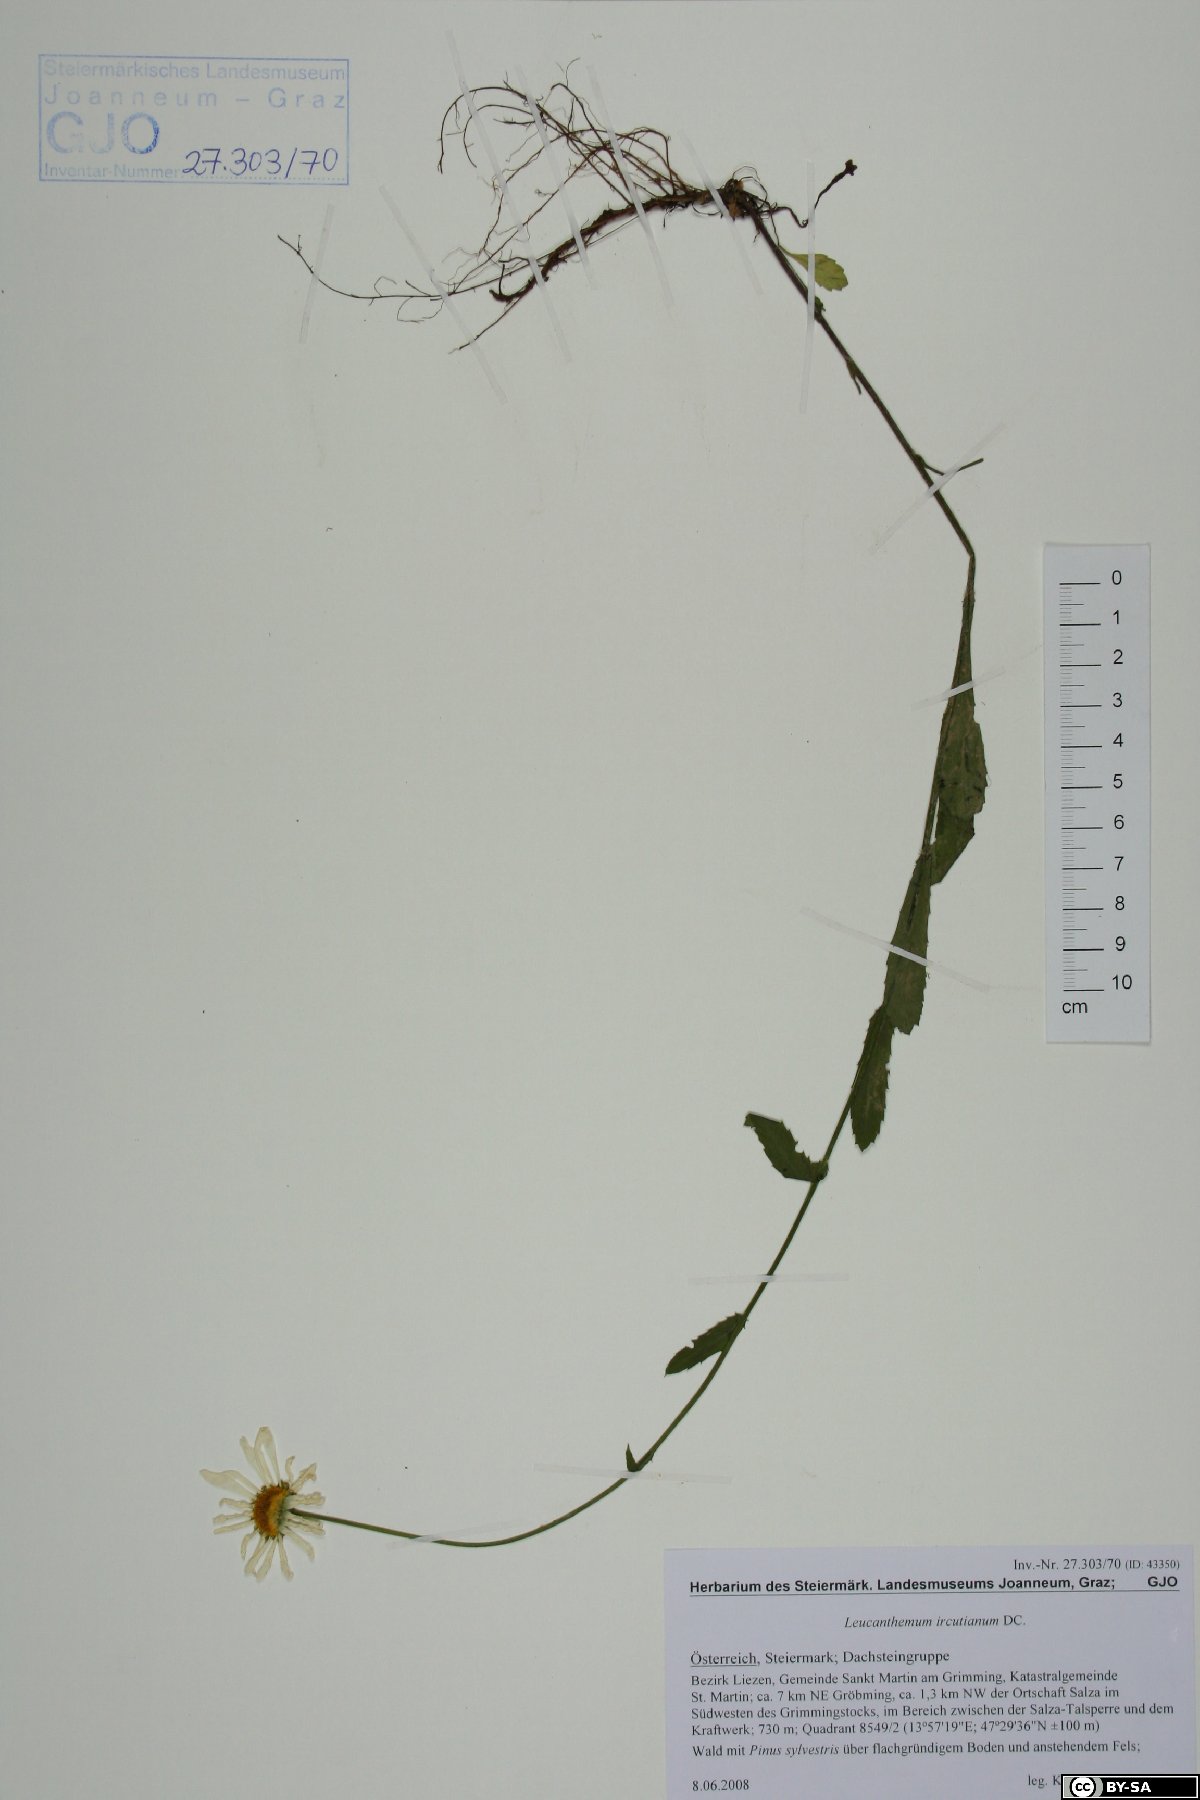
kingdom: Plantae
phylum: Tracheophyta
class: Magnoliopsida
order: Asterales
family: Asteraceae
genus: Leucanthemum
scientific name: Leucanthemum ircutianum
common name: Daisy
